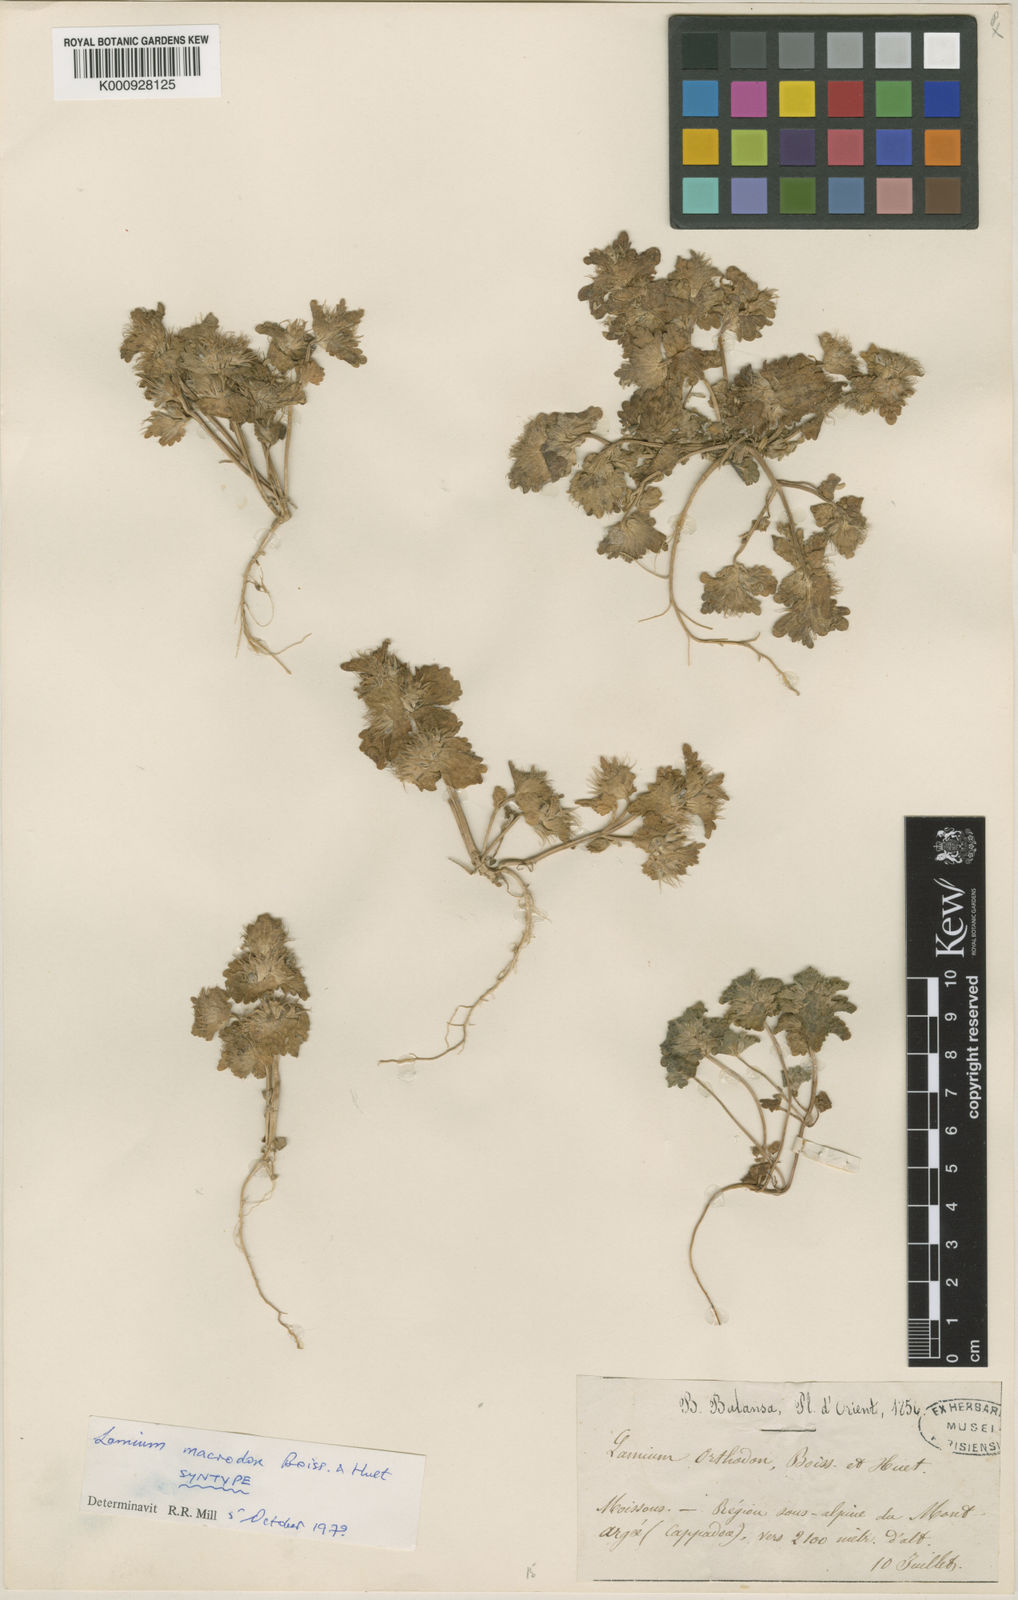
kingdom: Plantae
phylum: Tracheophyta
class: Magnoliopsida
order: Lamiales
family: Lamiaceae
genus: Lamium
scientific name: Lamium macrodon
